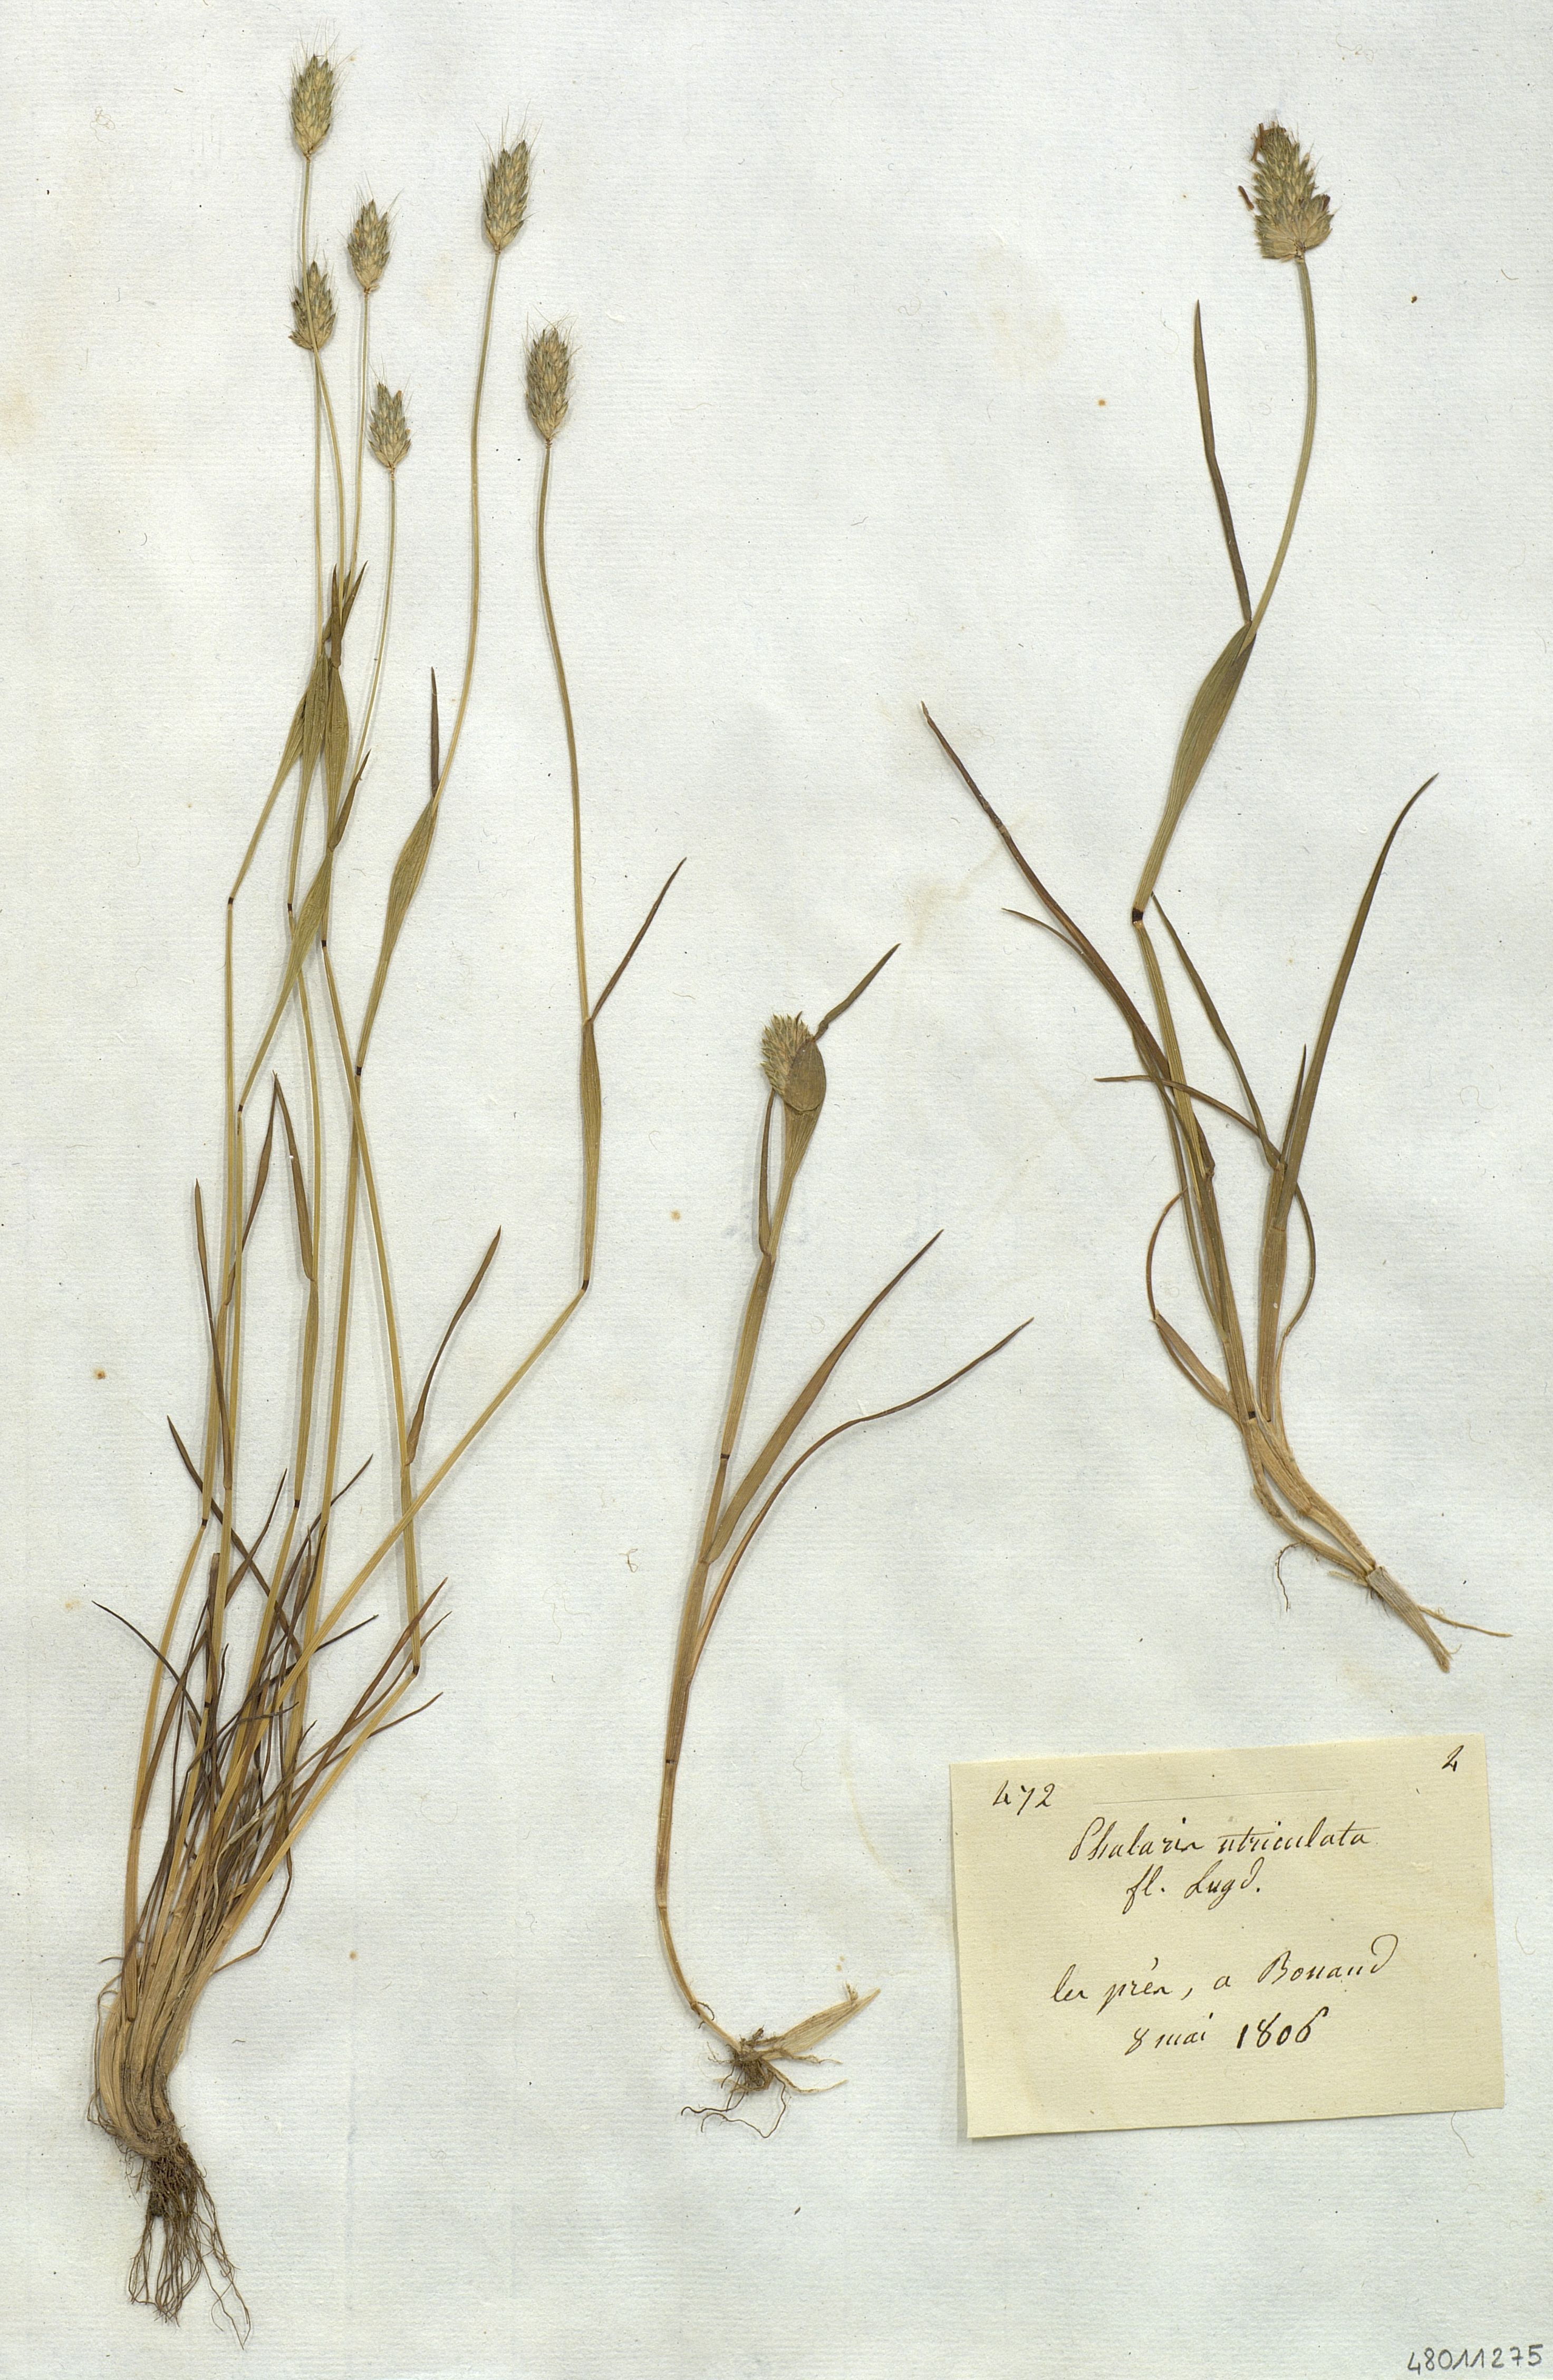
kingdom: Plantae
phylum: Tracheophyta
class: Liliopsida
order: Poales
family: Poaceae
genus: Alopecurus
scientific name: Alopecurus rendlei
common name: Rendle's meadow foxtail
